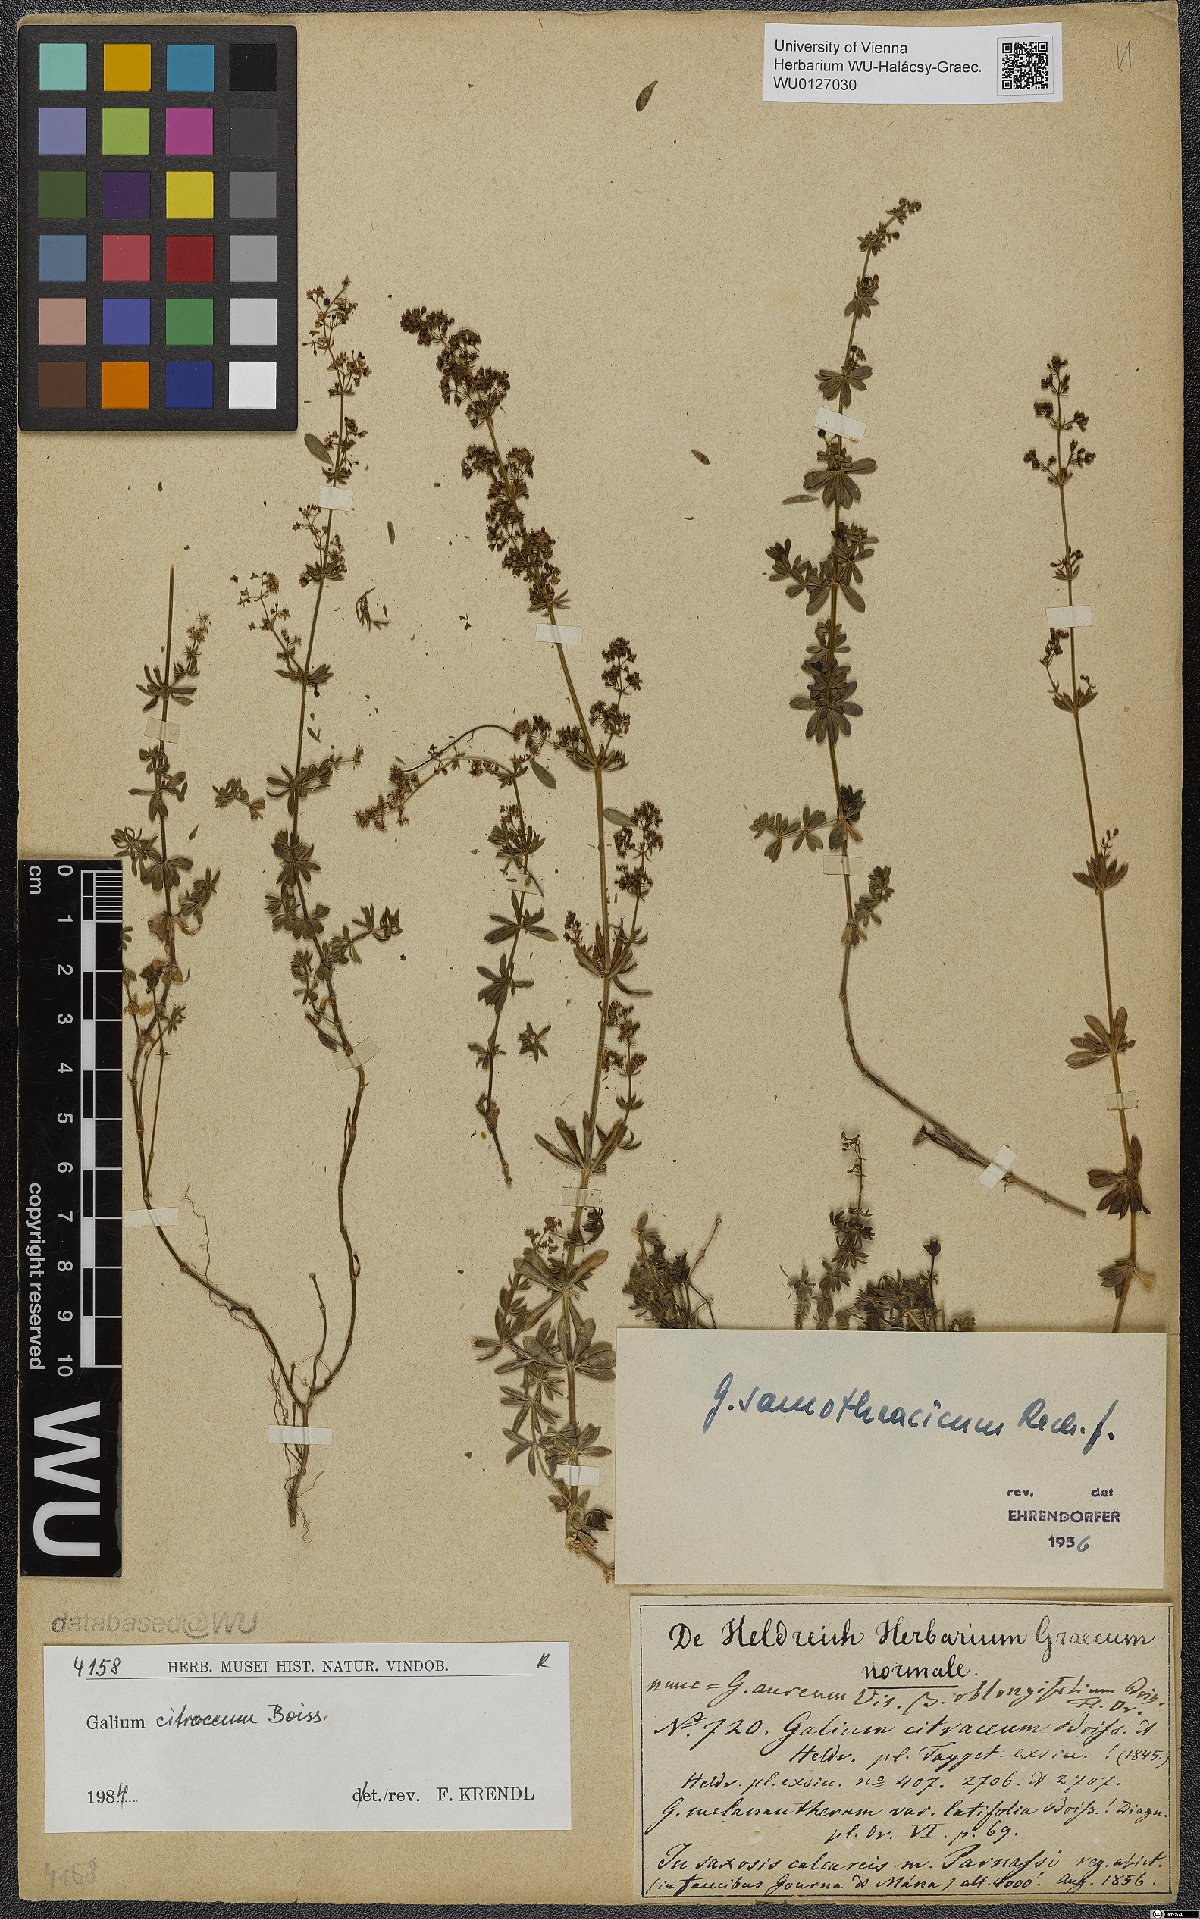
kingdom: Plantae
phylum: Tracheophyta
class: Magnoliopsida
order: Gentianales
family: Rubiaceae
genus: Galium
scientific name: Galium citraceum
